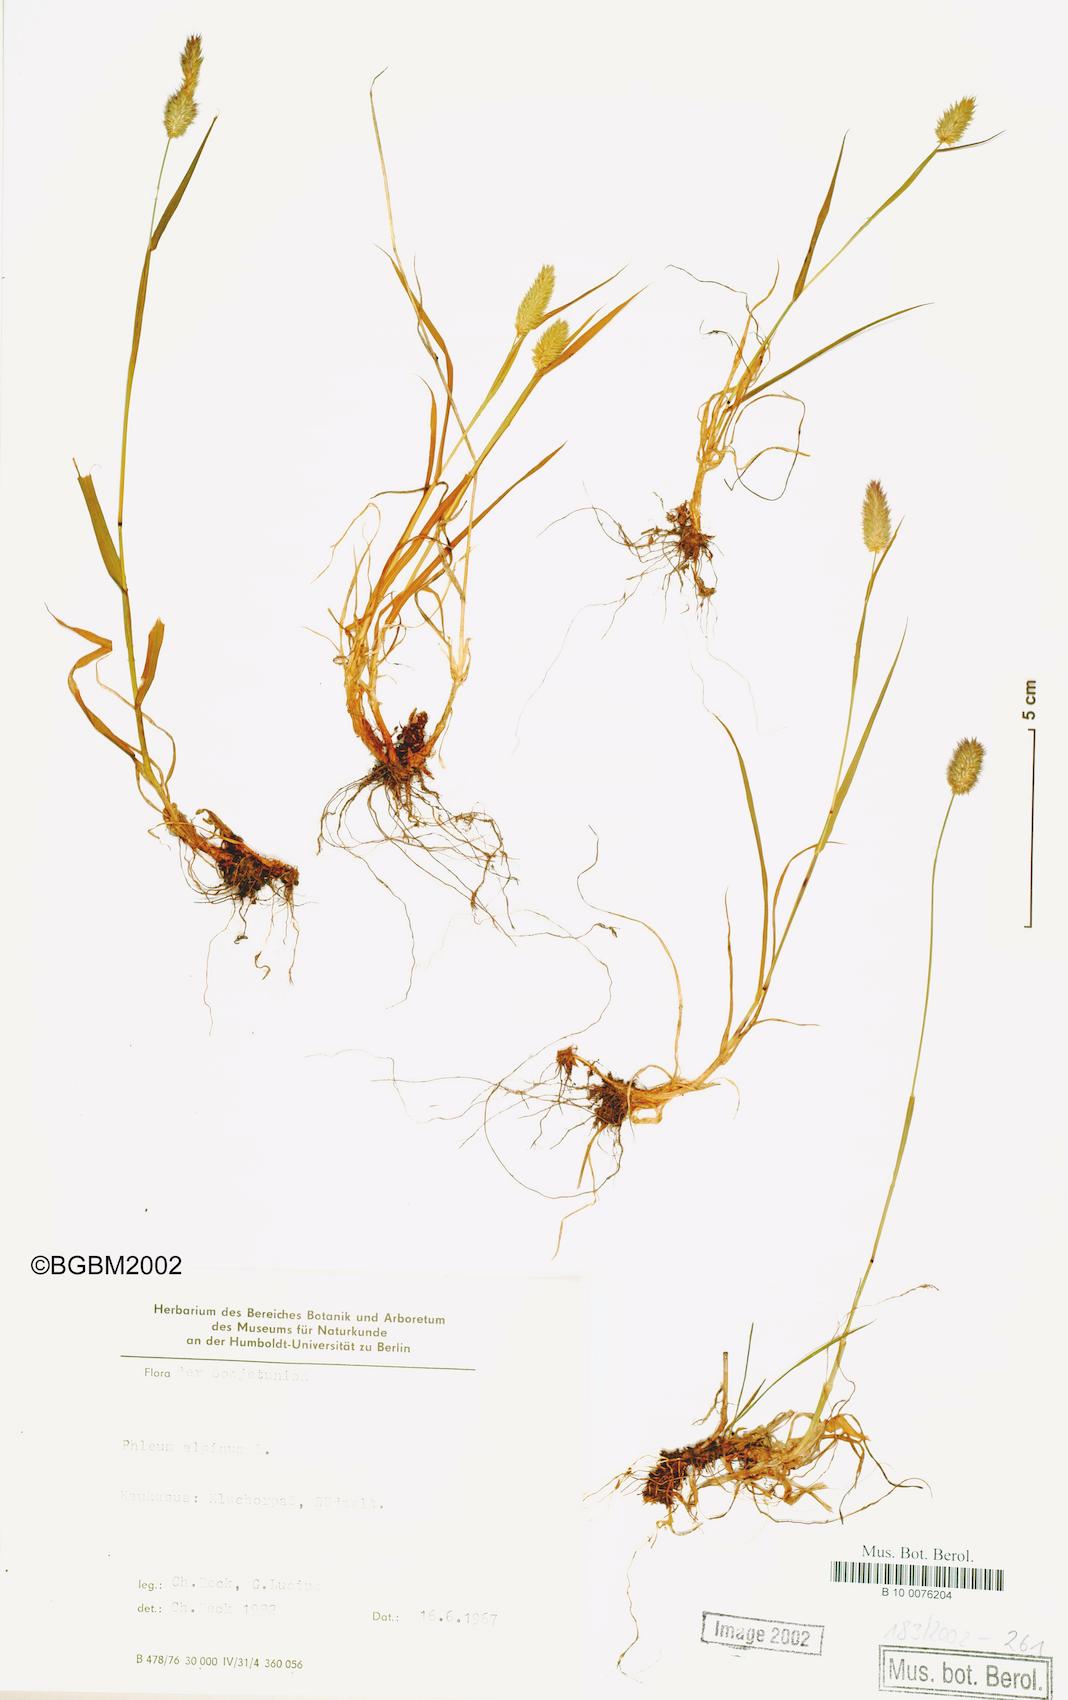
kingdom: Plantae
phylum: Tracheophyta
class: Liliopsida
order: Poales
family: Poaceae
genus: Phleum
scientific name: Phleum alpinum
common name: Alpine cat's-tail
